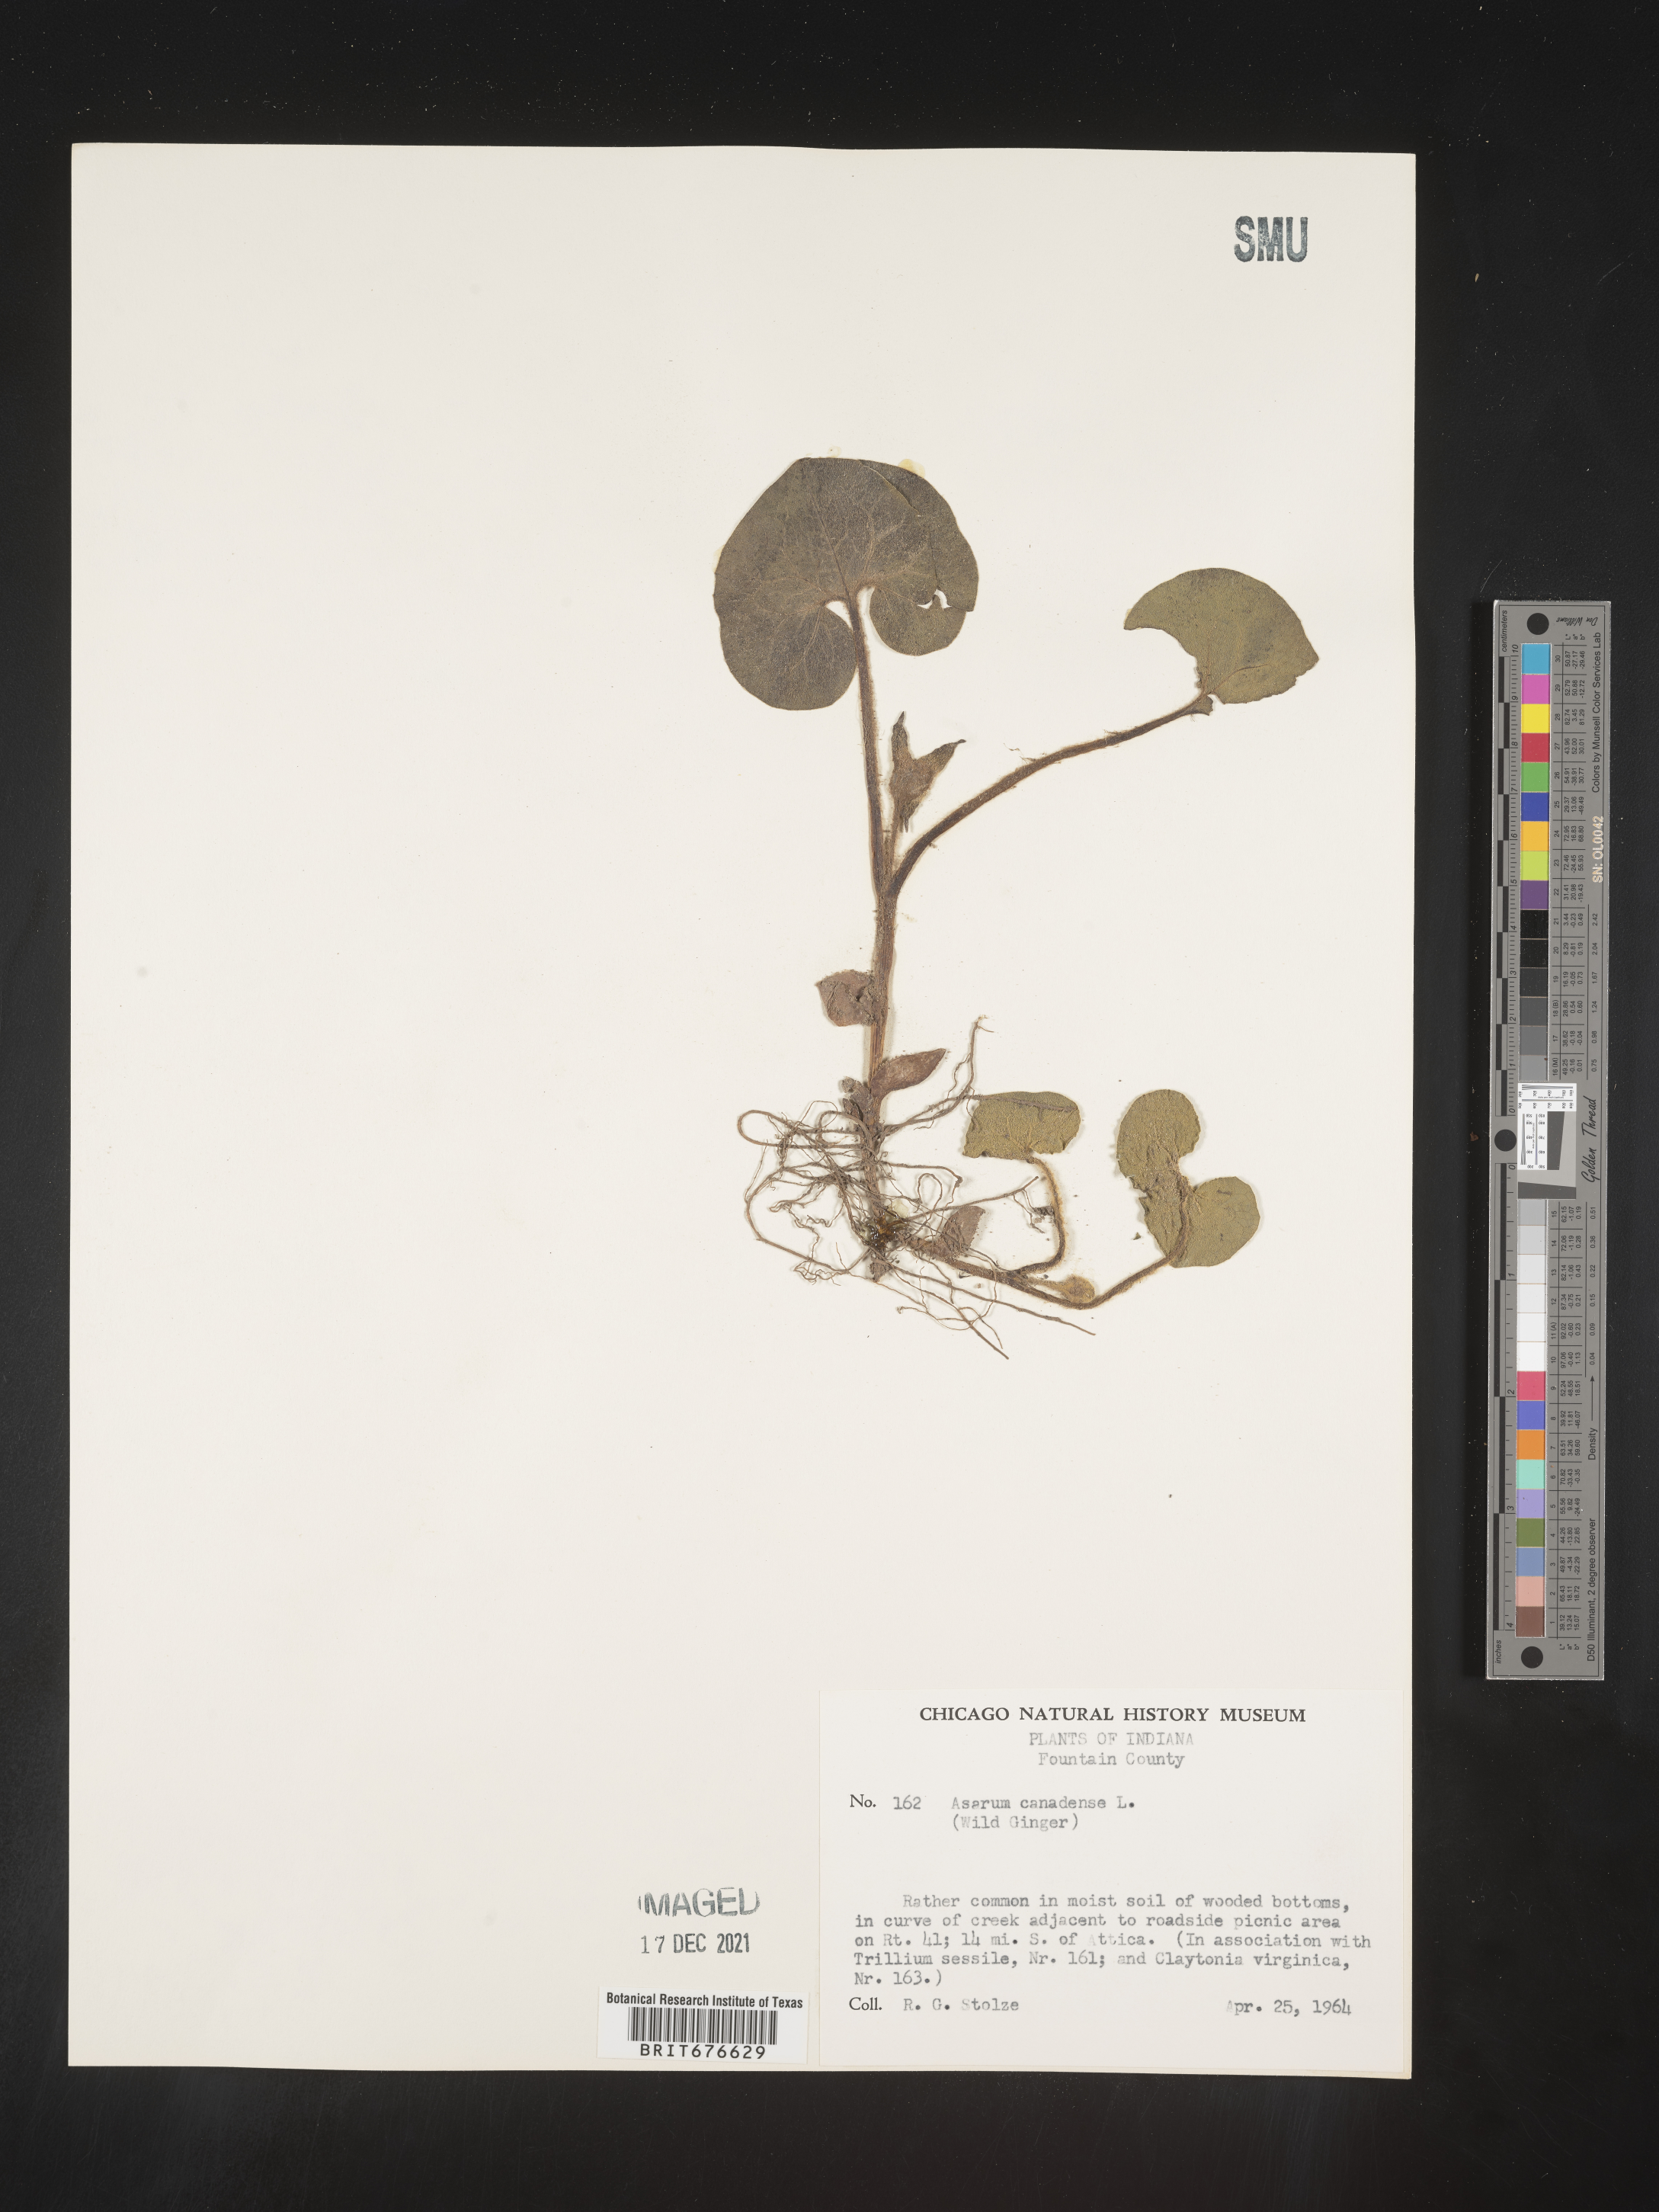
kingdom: Plantae
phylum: Tracheophyta
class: Magnoliopsida
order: Piperales
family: Aristolochiaceae
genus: Asarum
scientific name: Asarum canadense
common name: Wild ginger
